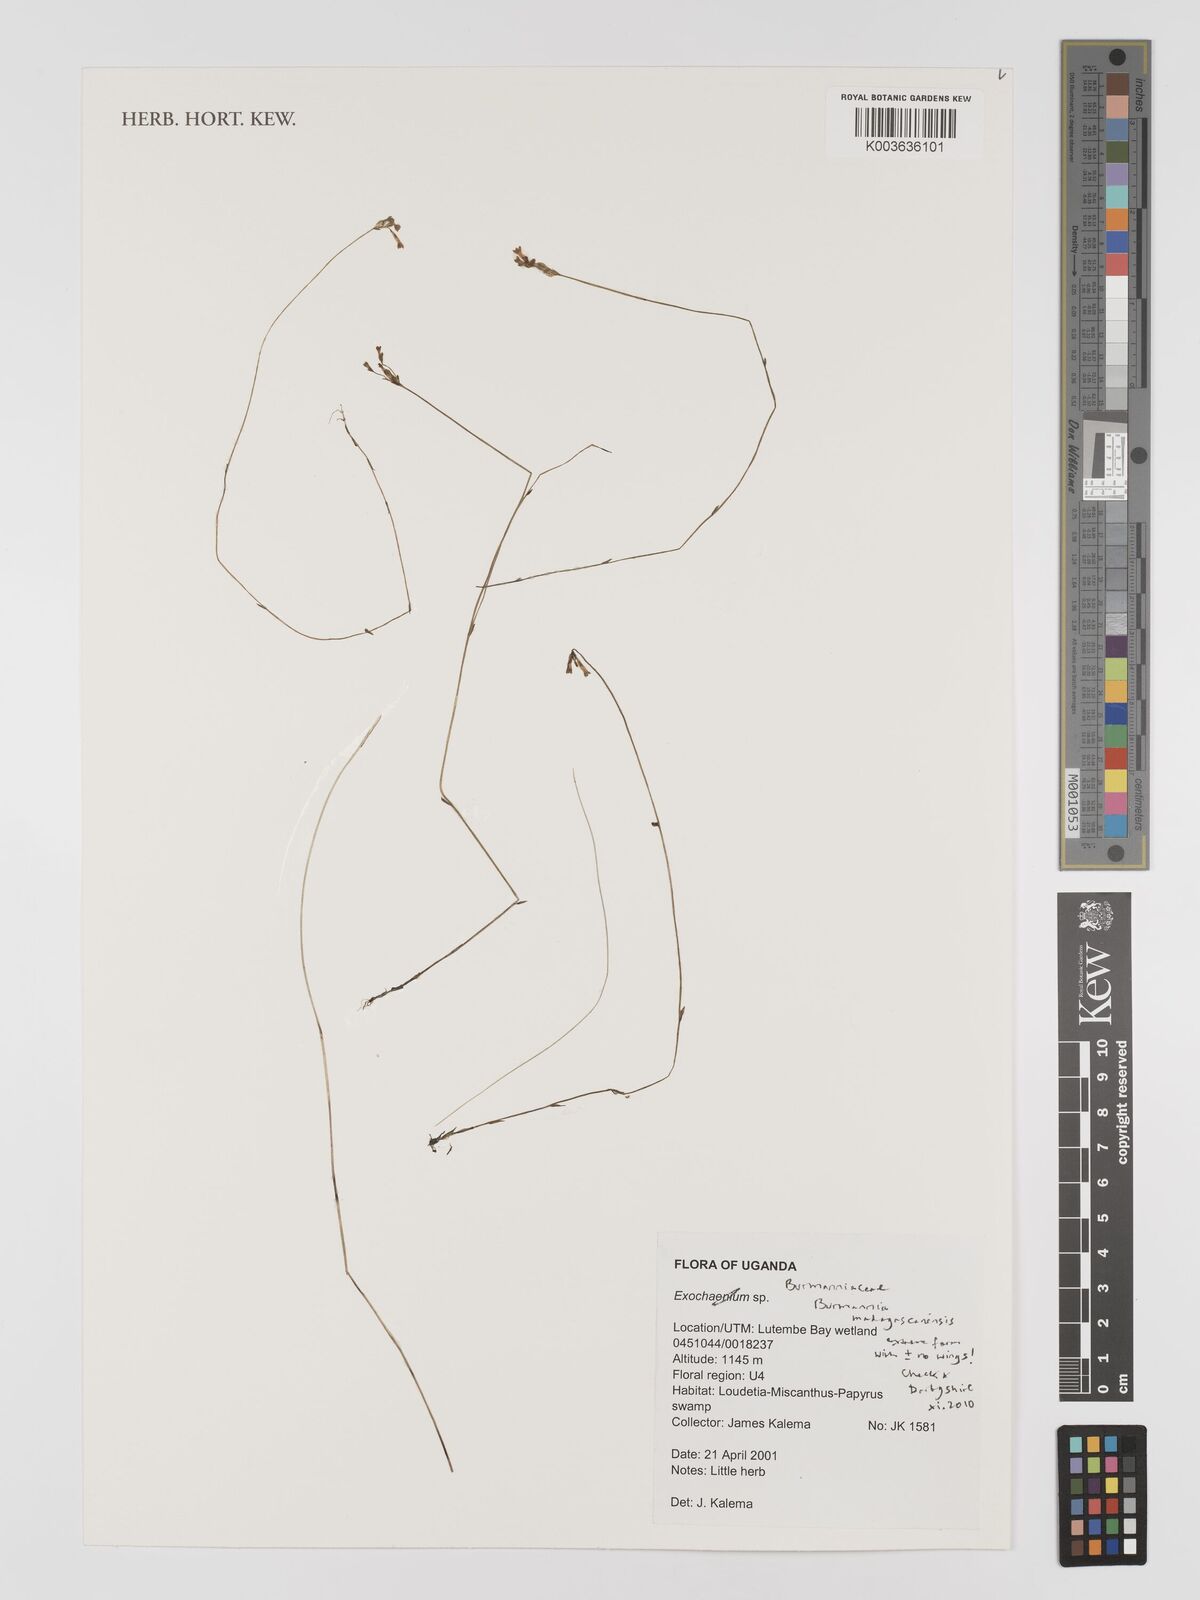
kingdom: Plantae
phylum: Tracheophyta
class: Liliopsida
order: Dioscoreales
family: Burmanniaceae
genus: Burmannia
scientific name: Burmannia madagascariensis
